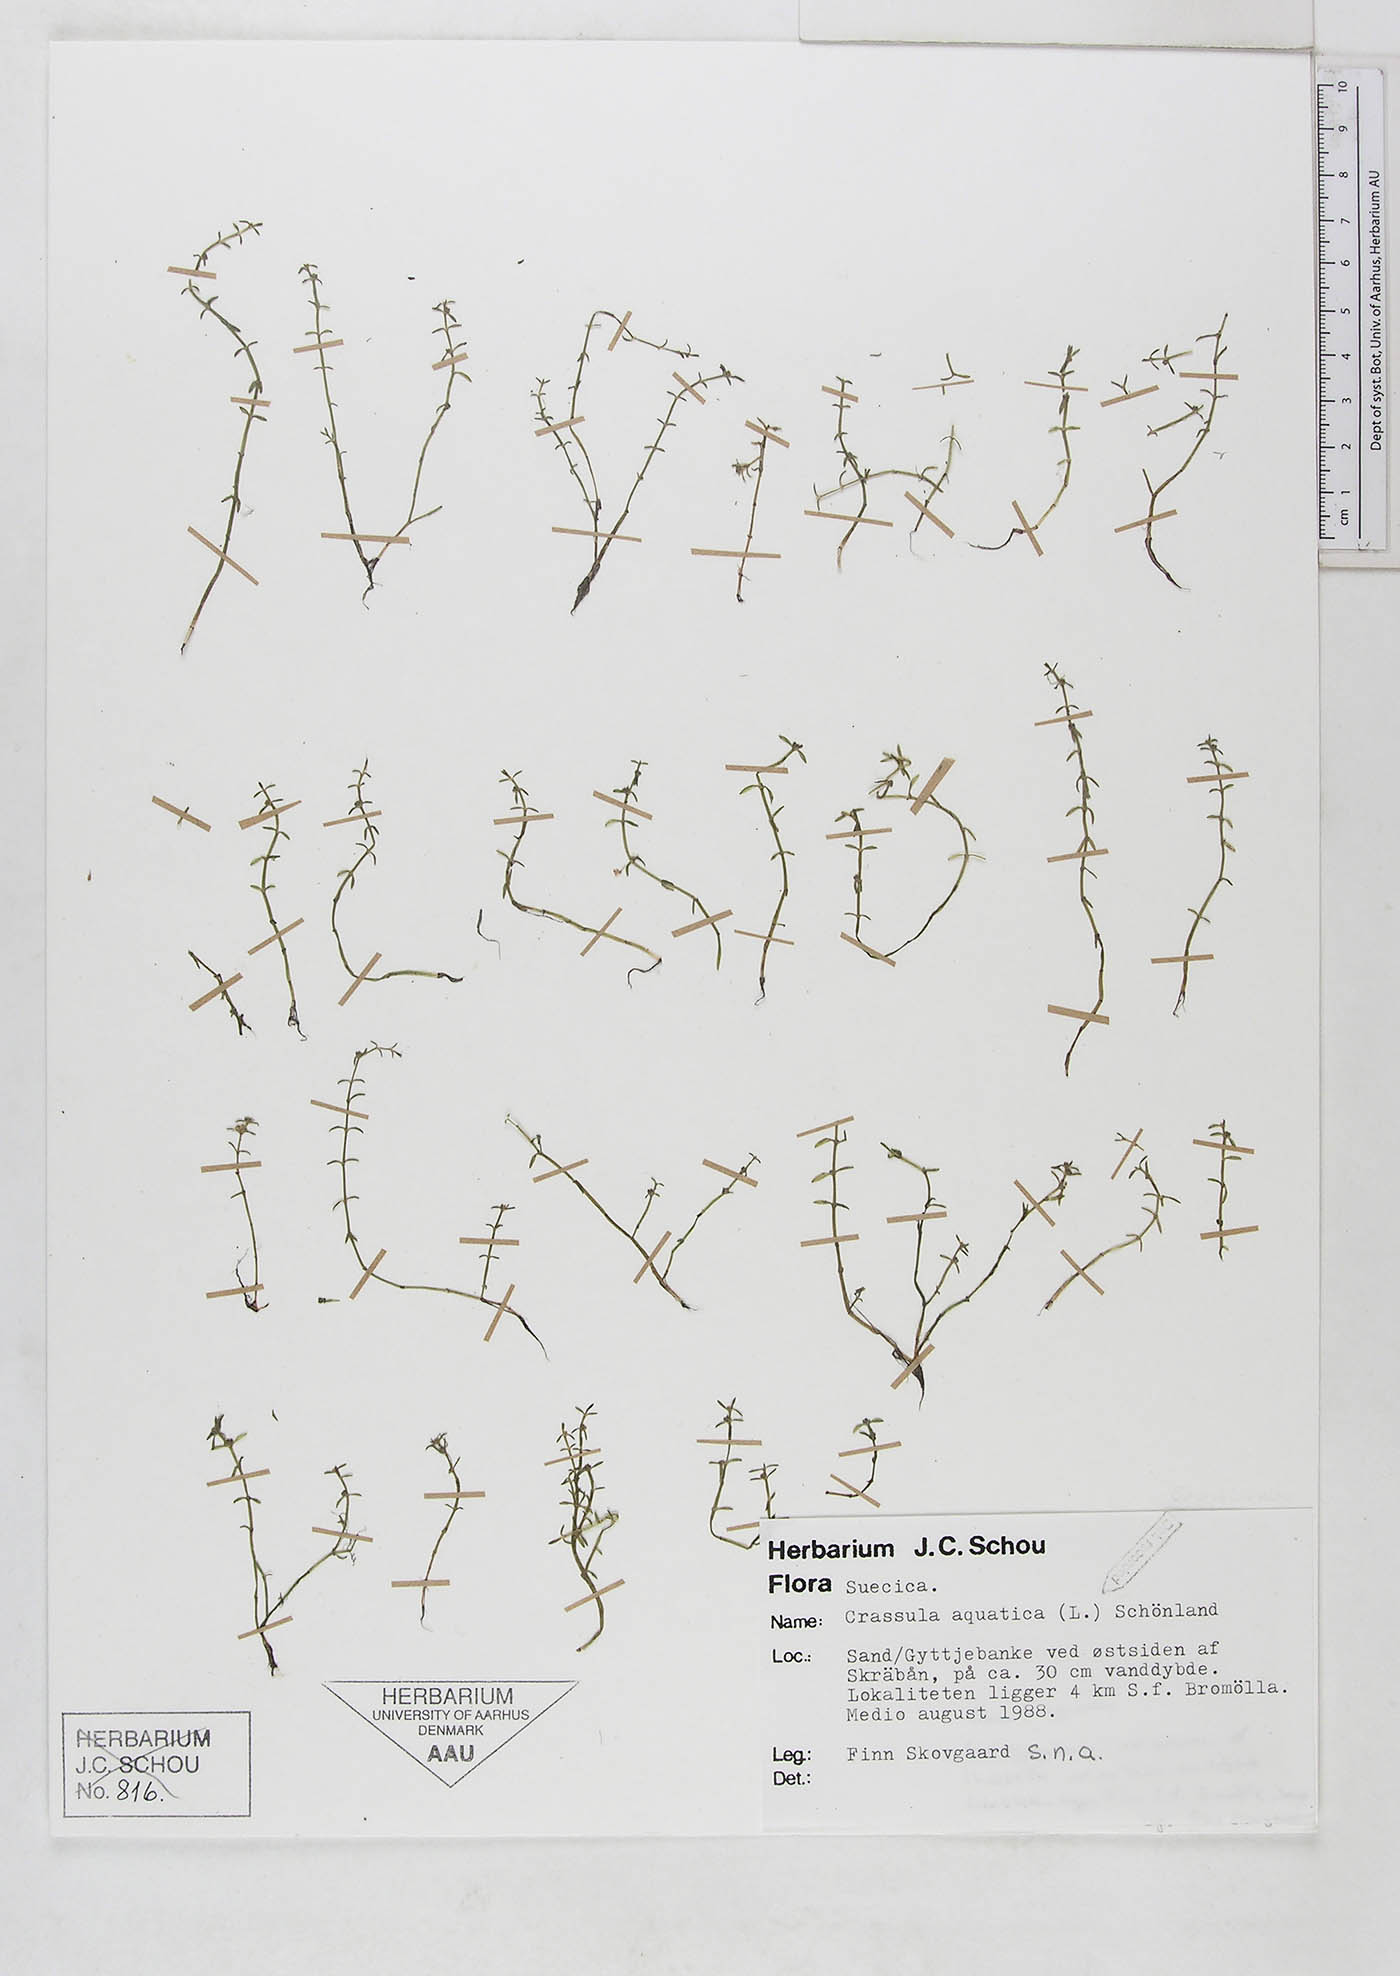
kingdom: Plantae
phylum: Tracheophyta
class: Magnoliopsida
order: Saxifragales
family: Crassulaceae
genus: Crassula
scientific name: Crassula aquatica
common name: Pigmyweed
